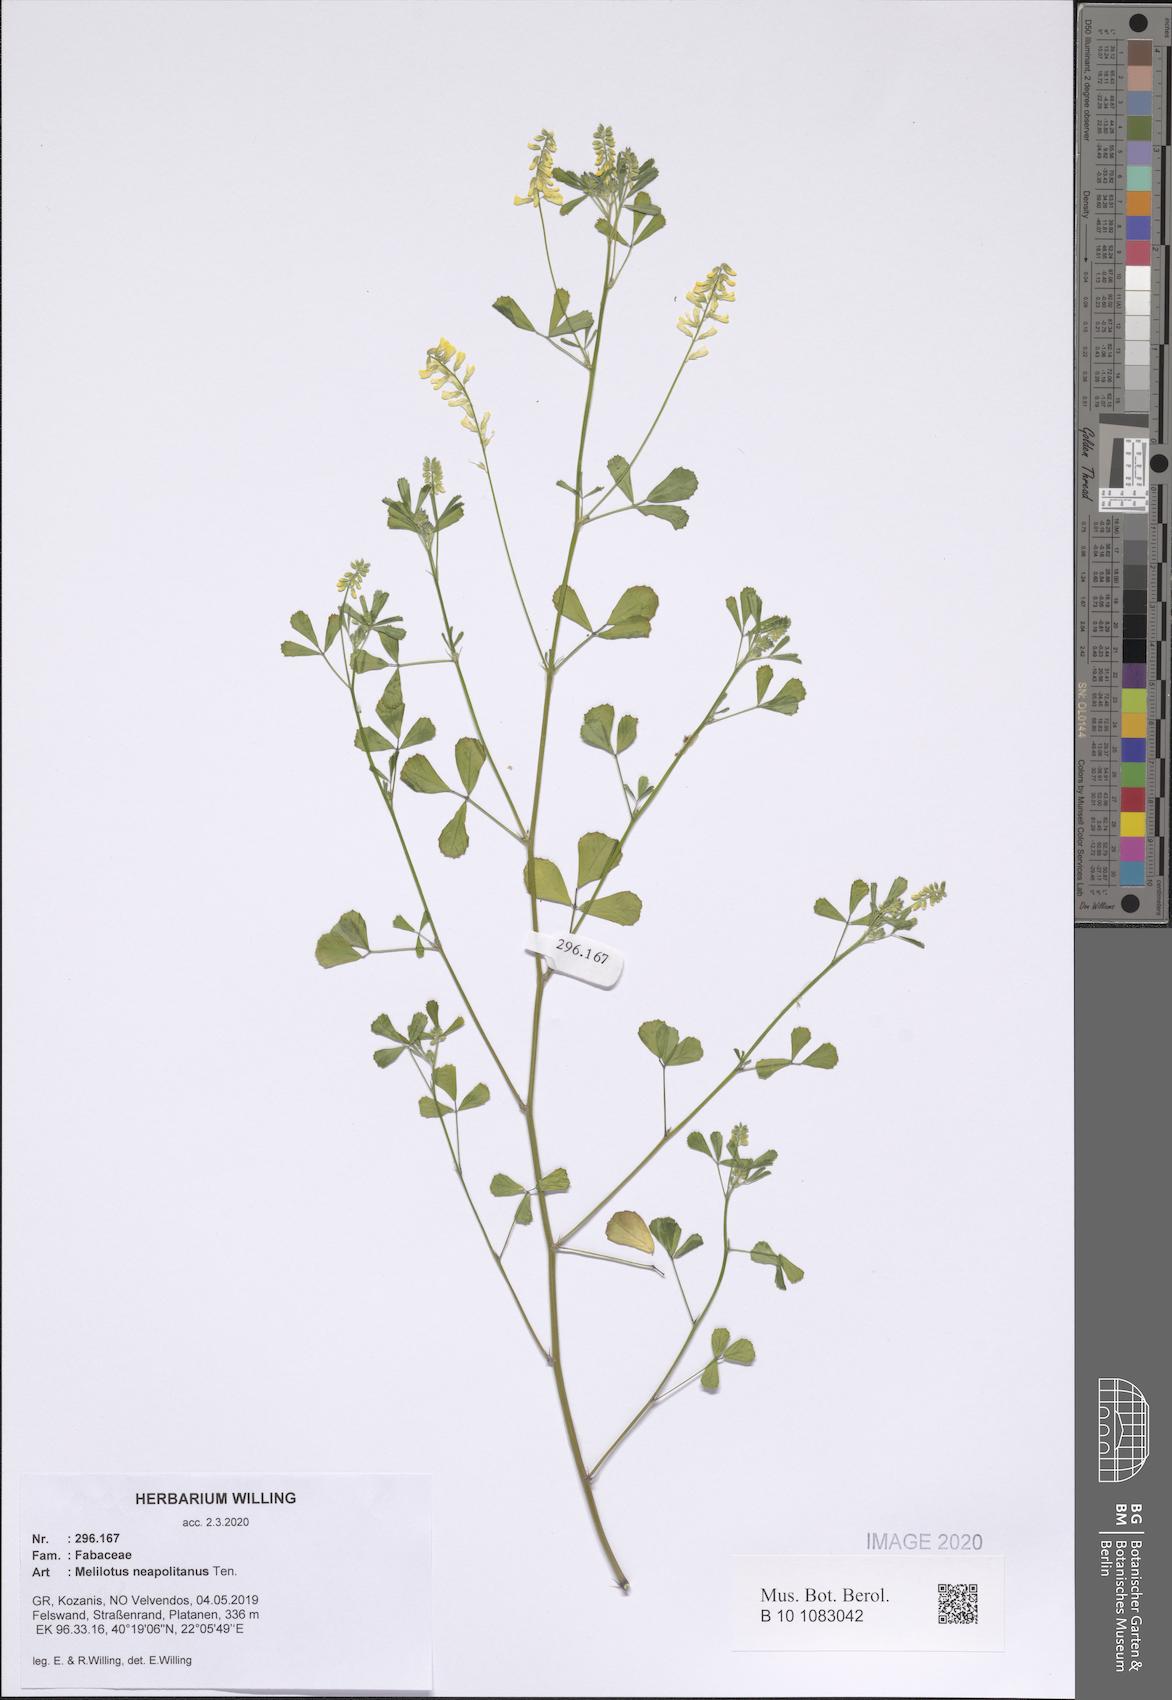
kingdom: Plantae
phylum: Tracheophyta
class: Magnoliopsida
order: Fabales
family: Fabaceae
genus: Melilotus
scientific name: Melilotus neapolitanus
